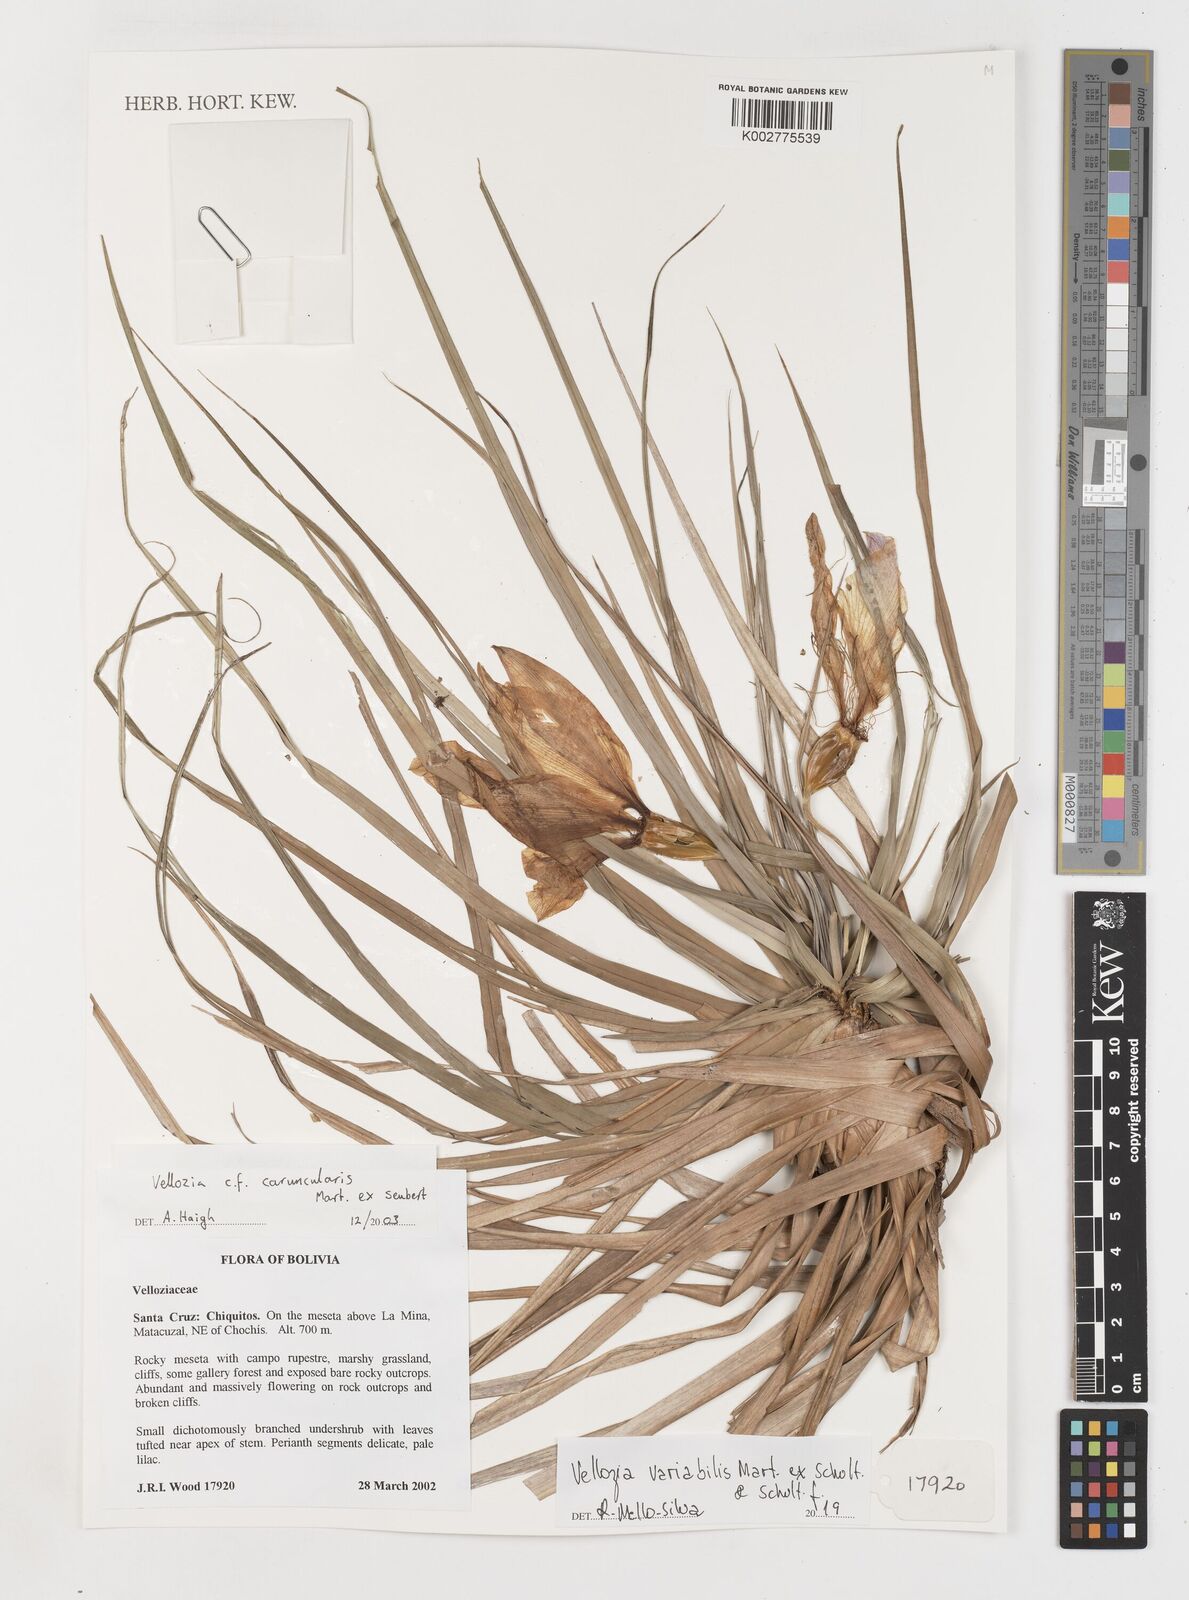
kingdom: Plantae
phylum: Tracheophyta
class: Liliopsida
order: Pandanales
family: Velloziaceae
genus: Vellozia
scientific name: Vellozia alutacea
